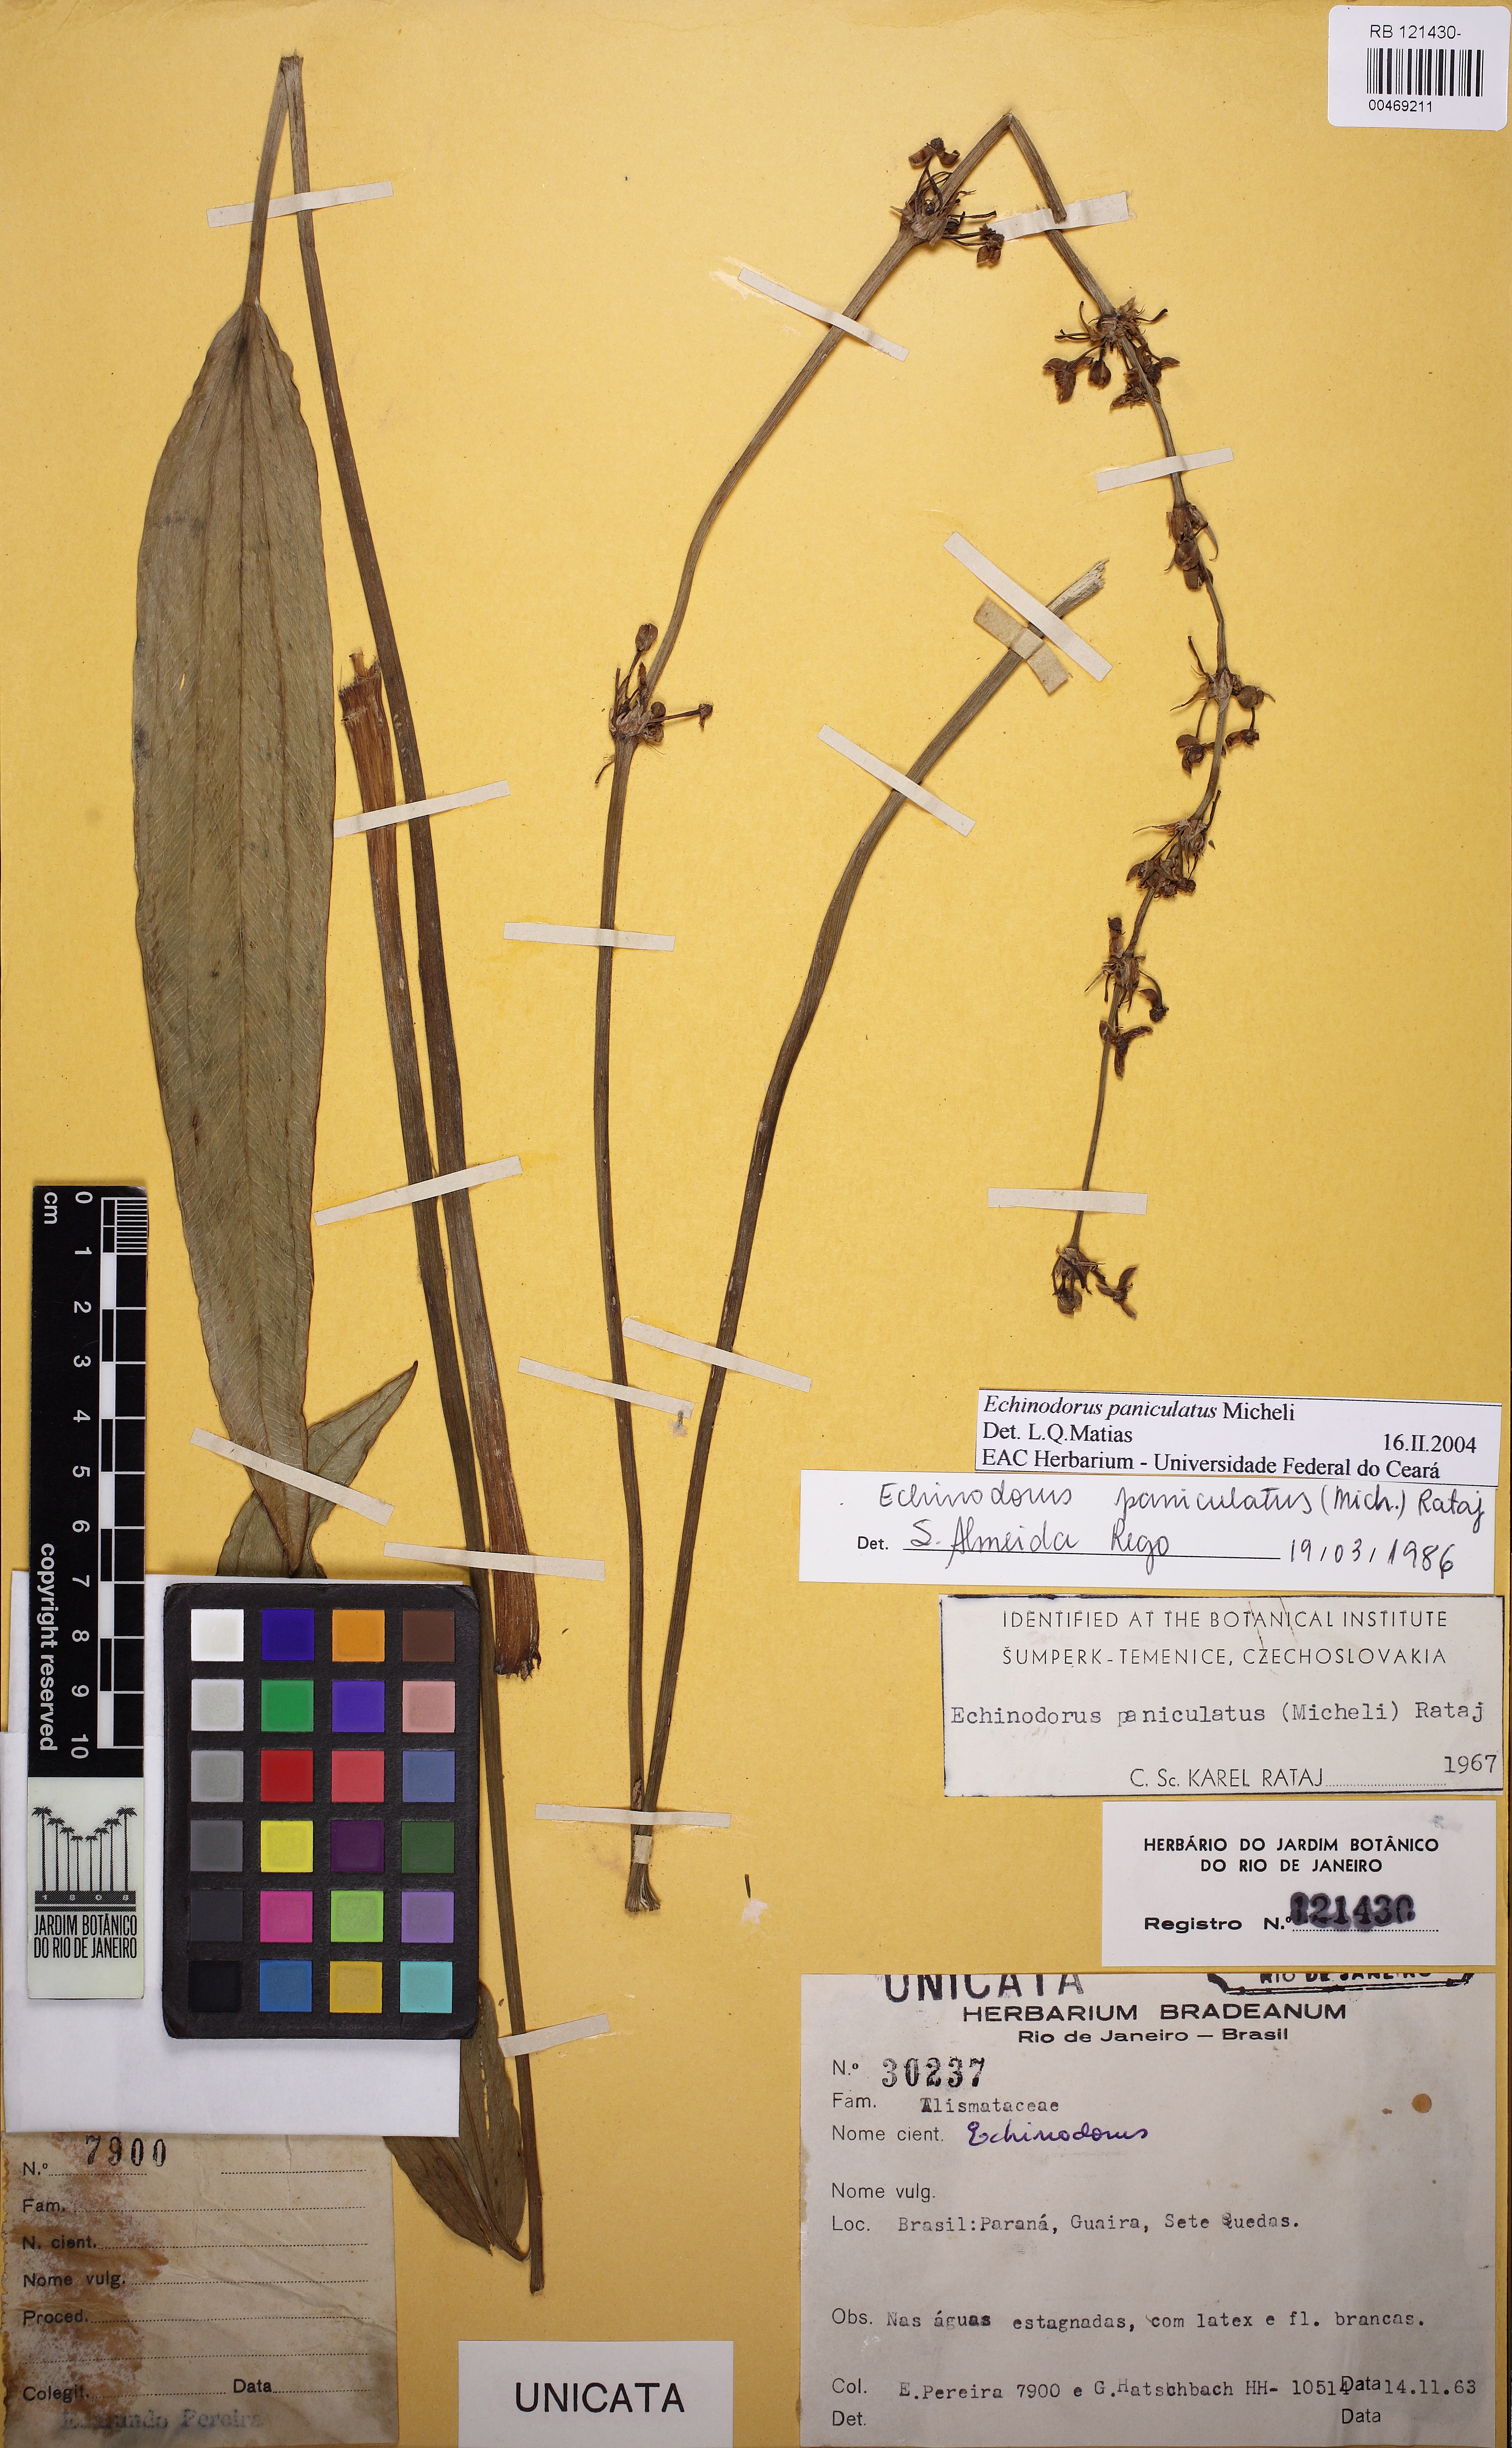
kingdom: Plantae
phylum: Tracheophyta
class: Liliopsida
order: Alismatales
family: Alismataceae
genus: Aquarius
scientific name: Aquarius paniculatus
